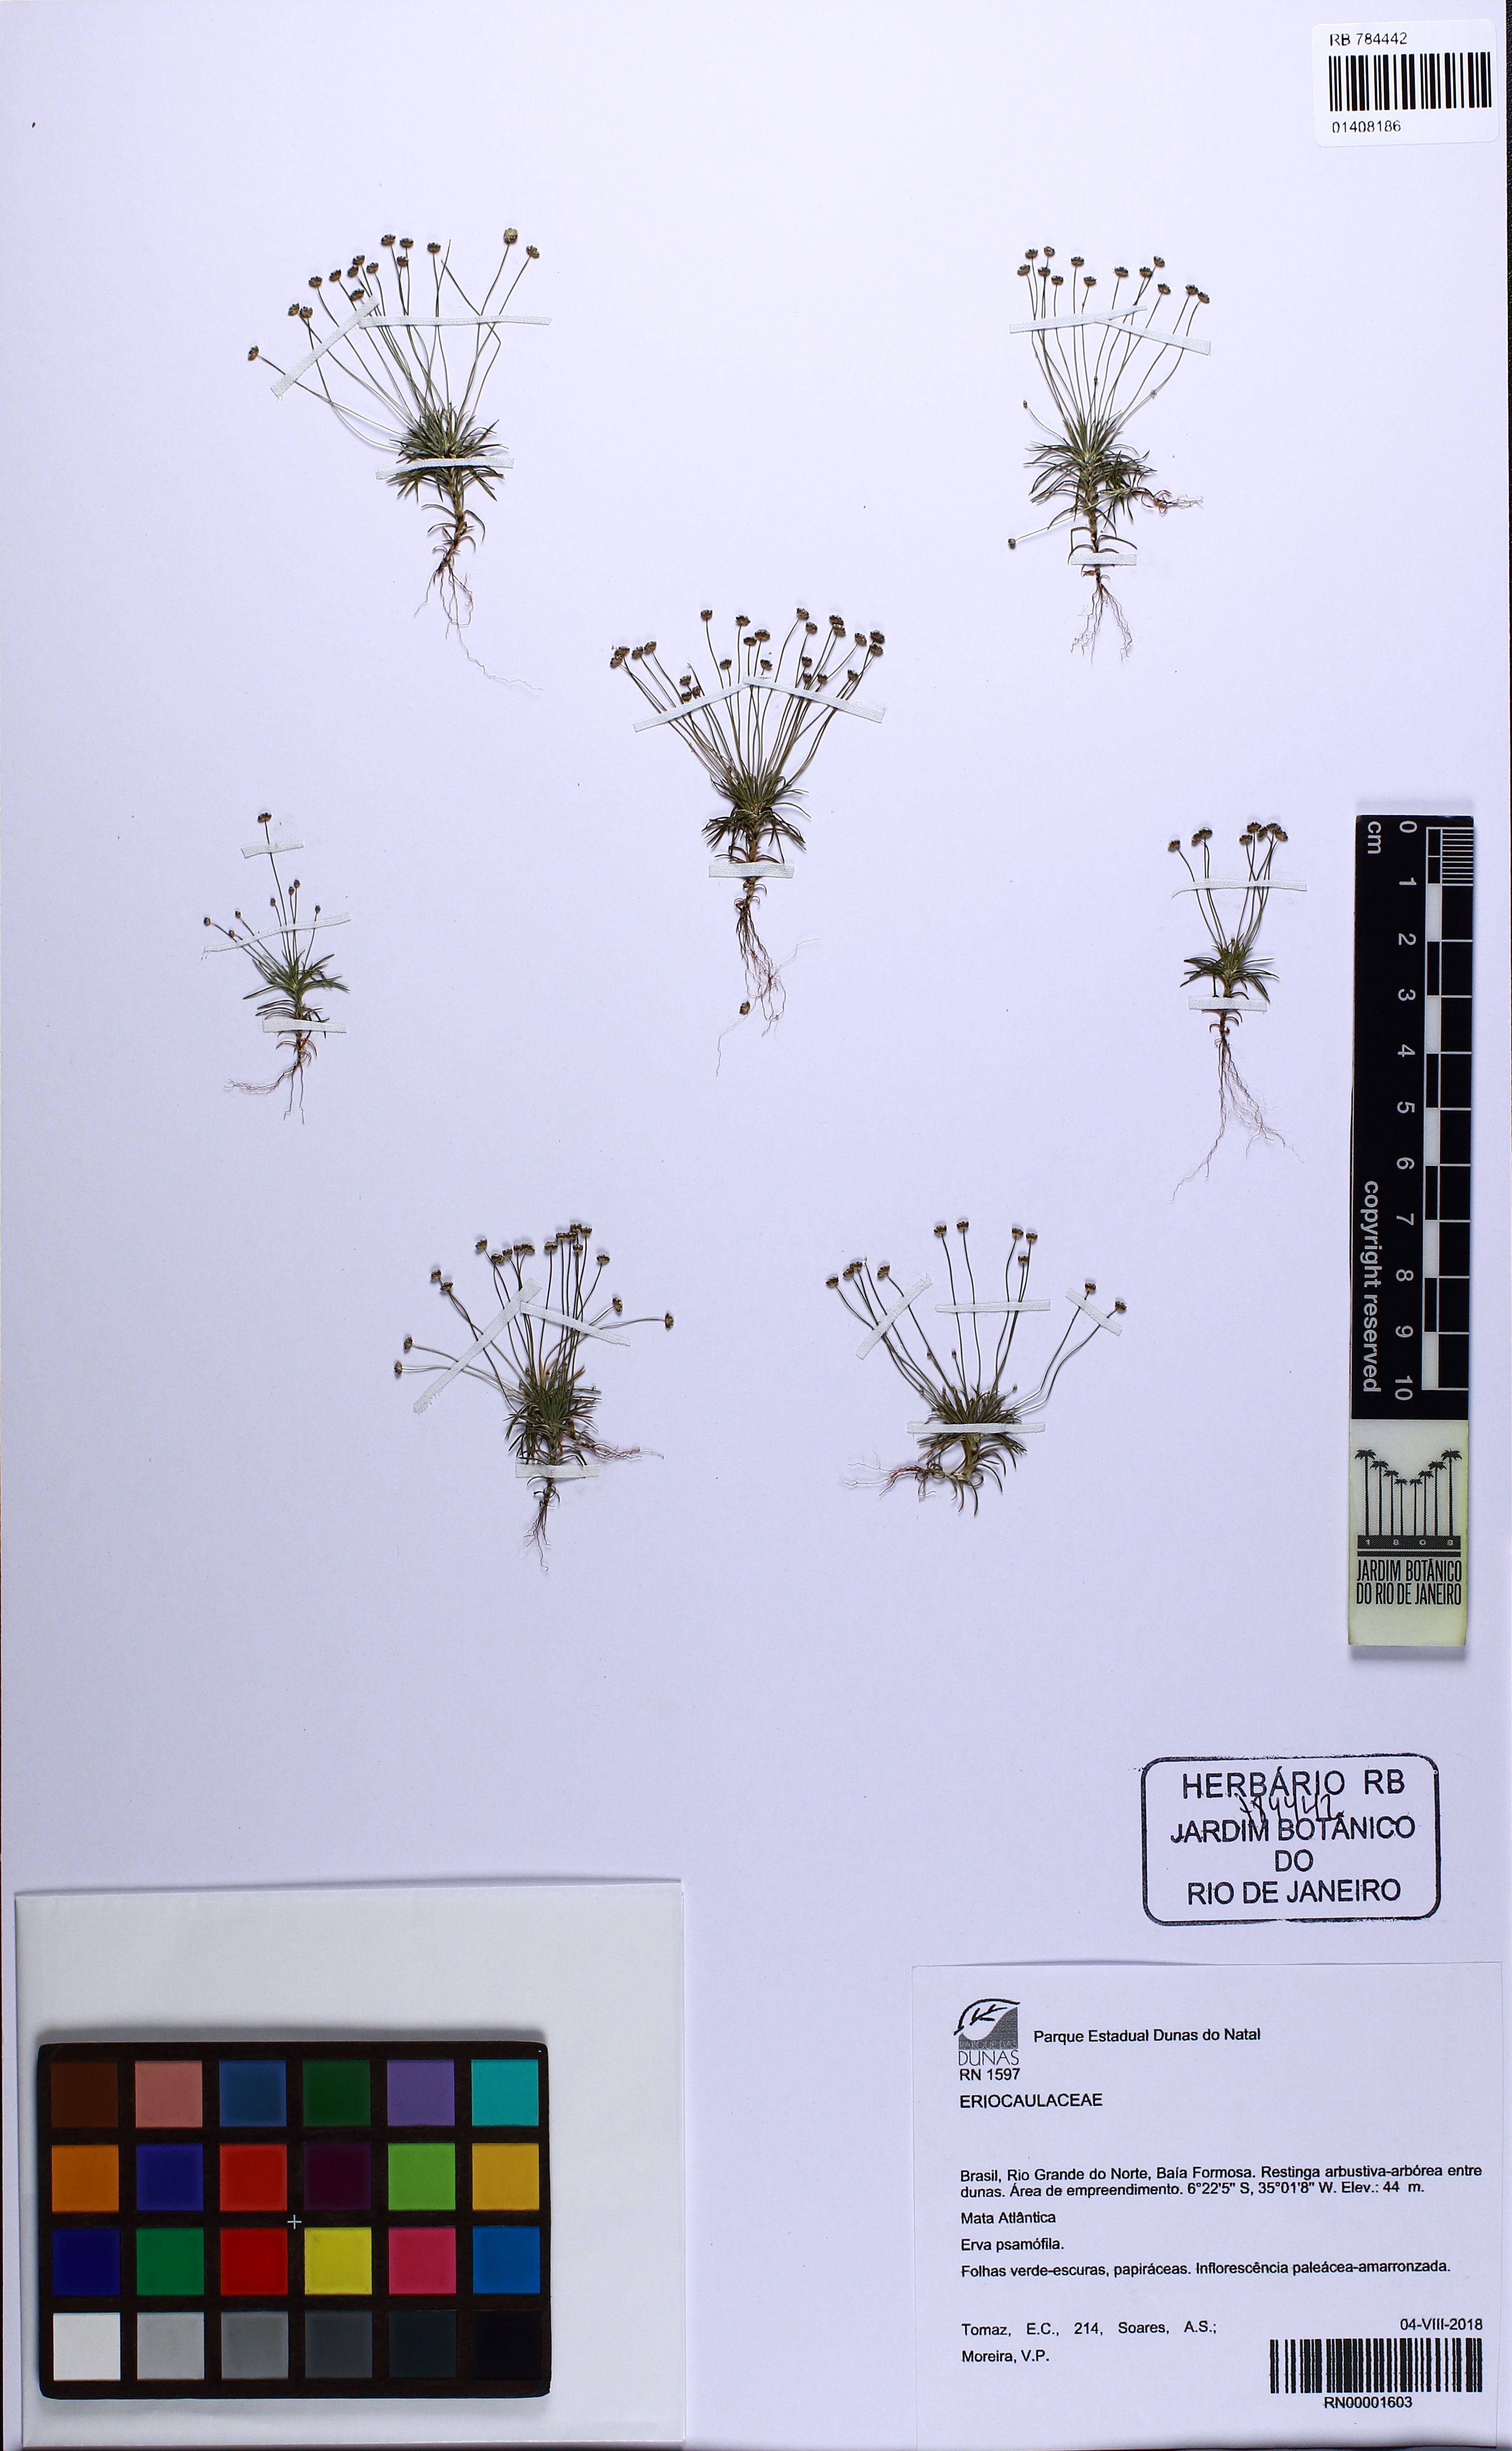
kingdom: Plantae
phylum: Tracheophyta
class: Liliopsida
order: Poales
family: Eriocaulaceae
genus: Paepalanthus
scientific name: Paepalanthus subtilis
